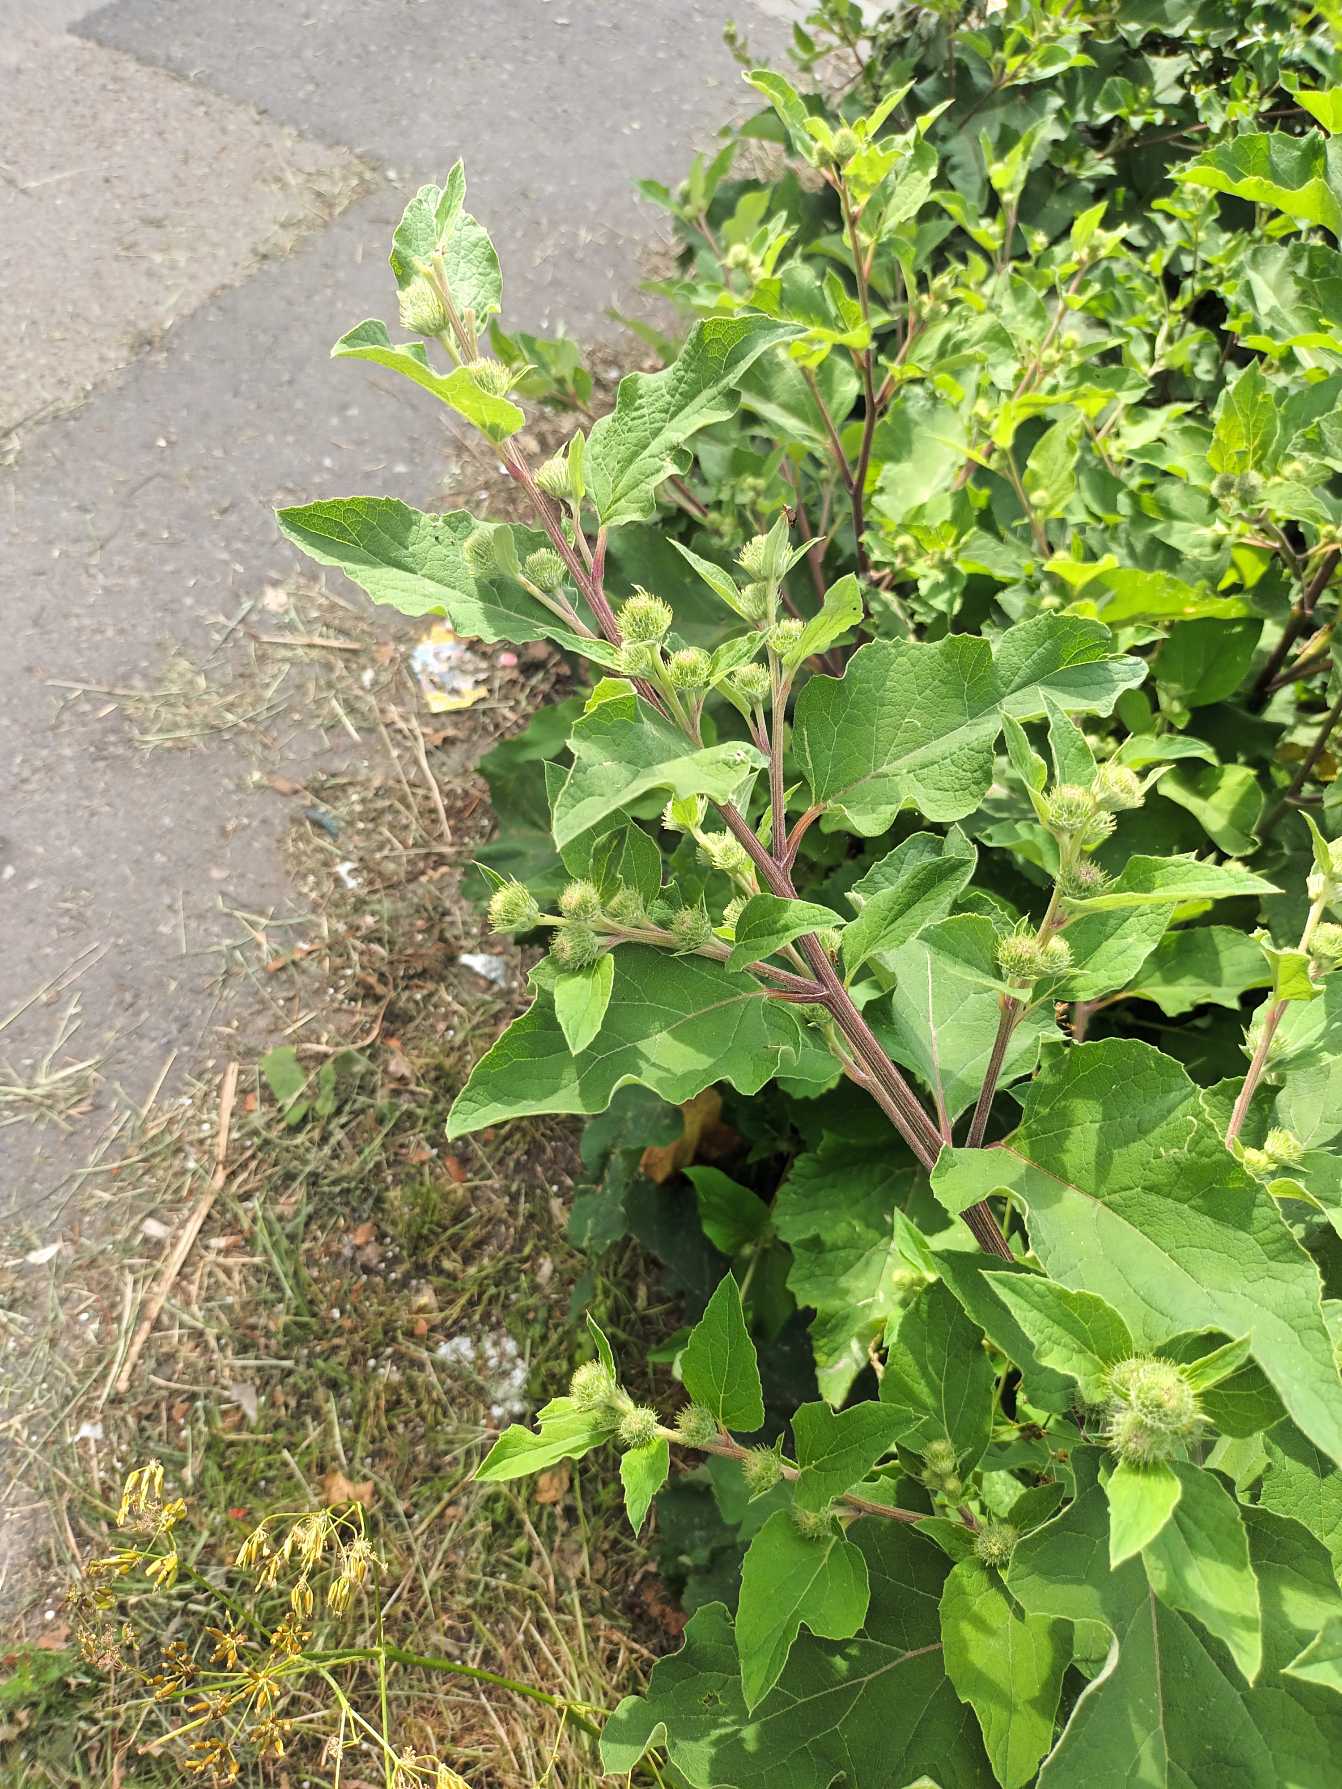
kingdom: Plantae
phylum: Tracheophyta
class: Magnoliopsida
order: Asterales
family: Asteraceae
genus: Arctium
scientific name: Arctium minus
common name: Liden burre
